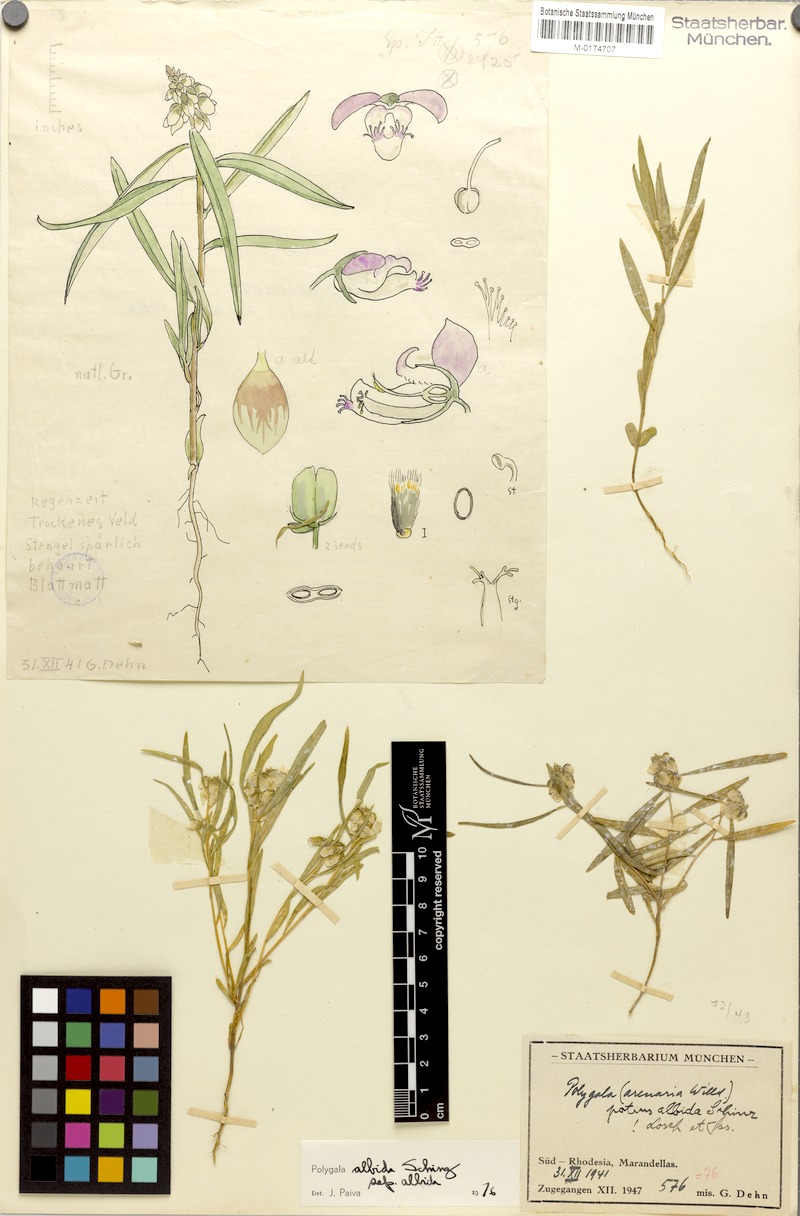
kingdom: Plantae
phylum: Tracheophyta
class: Magnoliopsida
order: Fabales
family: Polygalaceae
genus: Polygala
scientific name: Polygala albida
